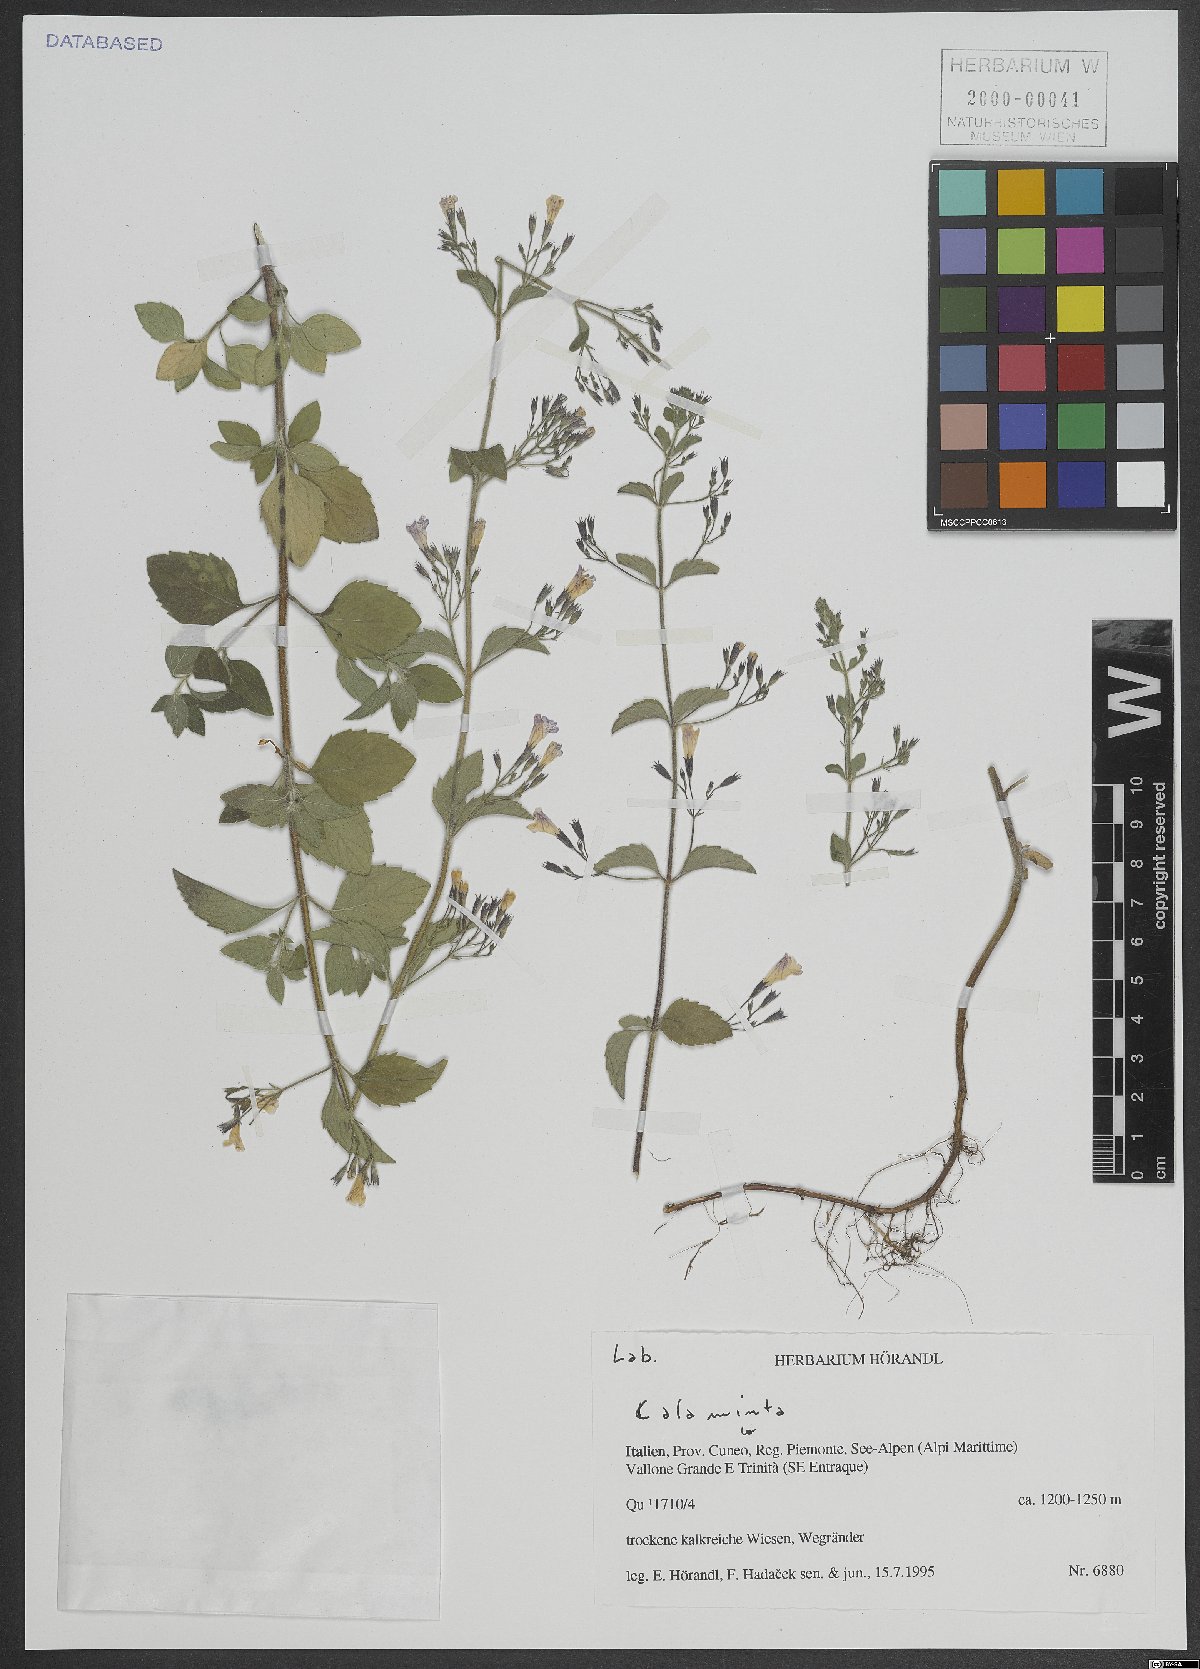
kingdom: Plantae
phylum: Tracheophyta
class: Magnoliopsida
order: Lamiales
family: Lamiaceae
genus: Calamintha
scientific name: Calamintha
